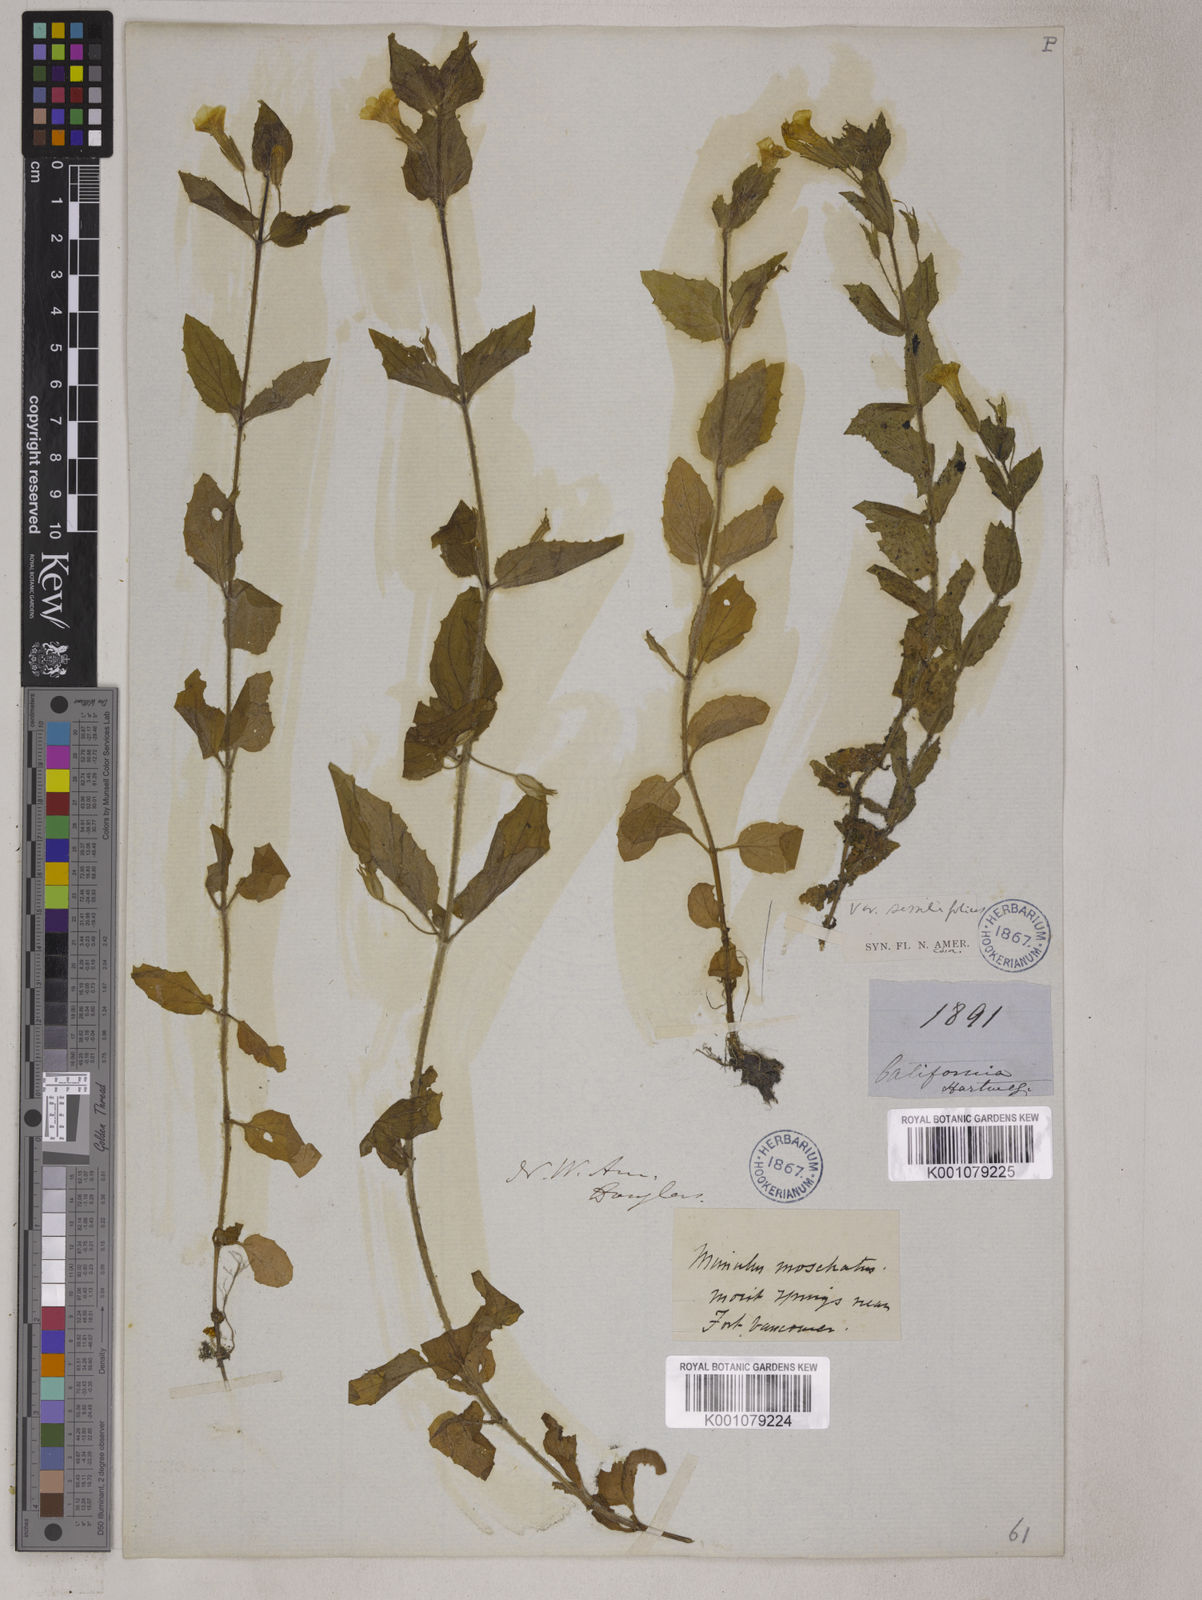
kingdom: Plantae
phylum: Tracheophyta
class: Magnoliopsida
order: Lamiales
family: Phrymaceae
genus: Mimulus
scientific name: Mimulus
